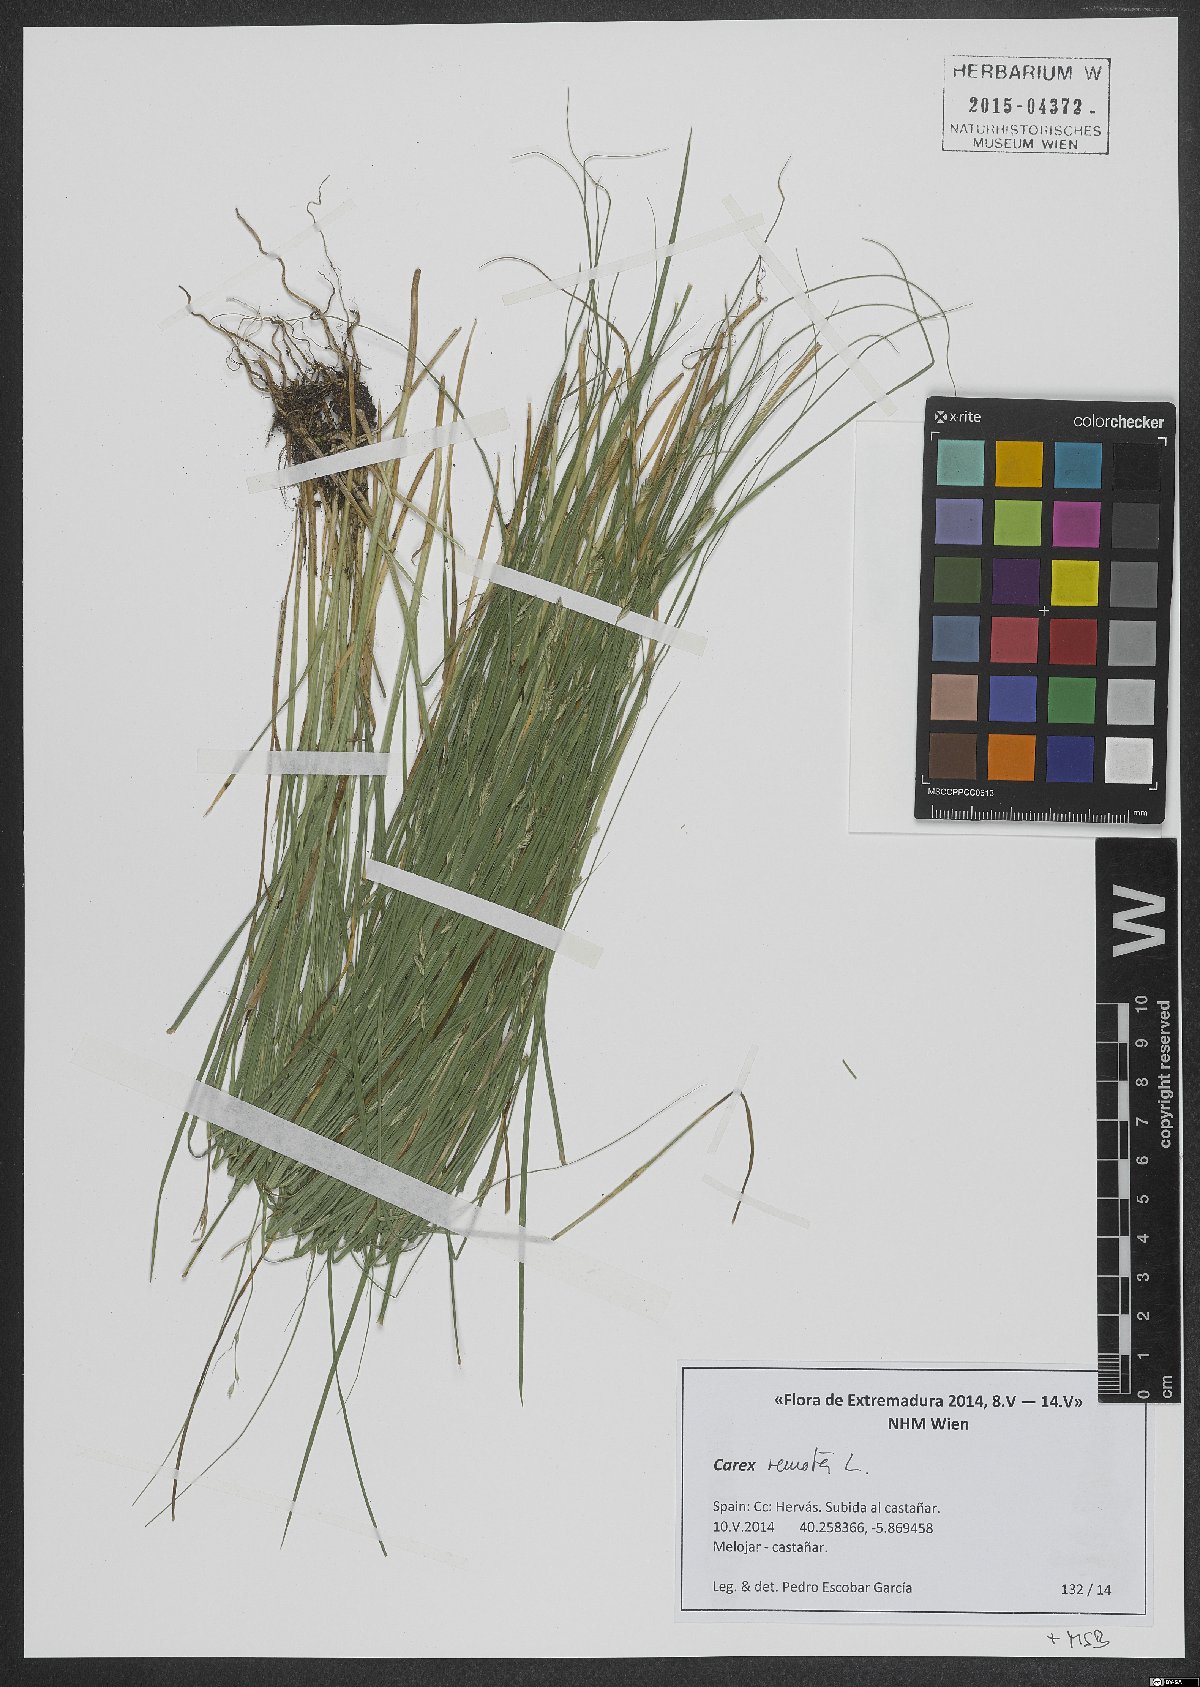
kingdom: Plantae
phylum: Tracheophyta
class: Liliopsida
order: Poales
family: Cyperaceae
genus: Carex
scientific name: Carex remota
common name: Remote sedge
